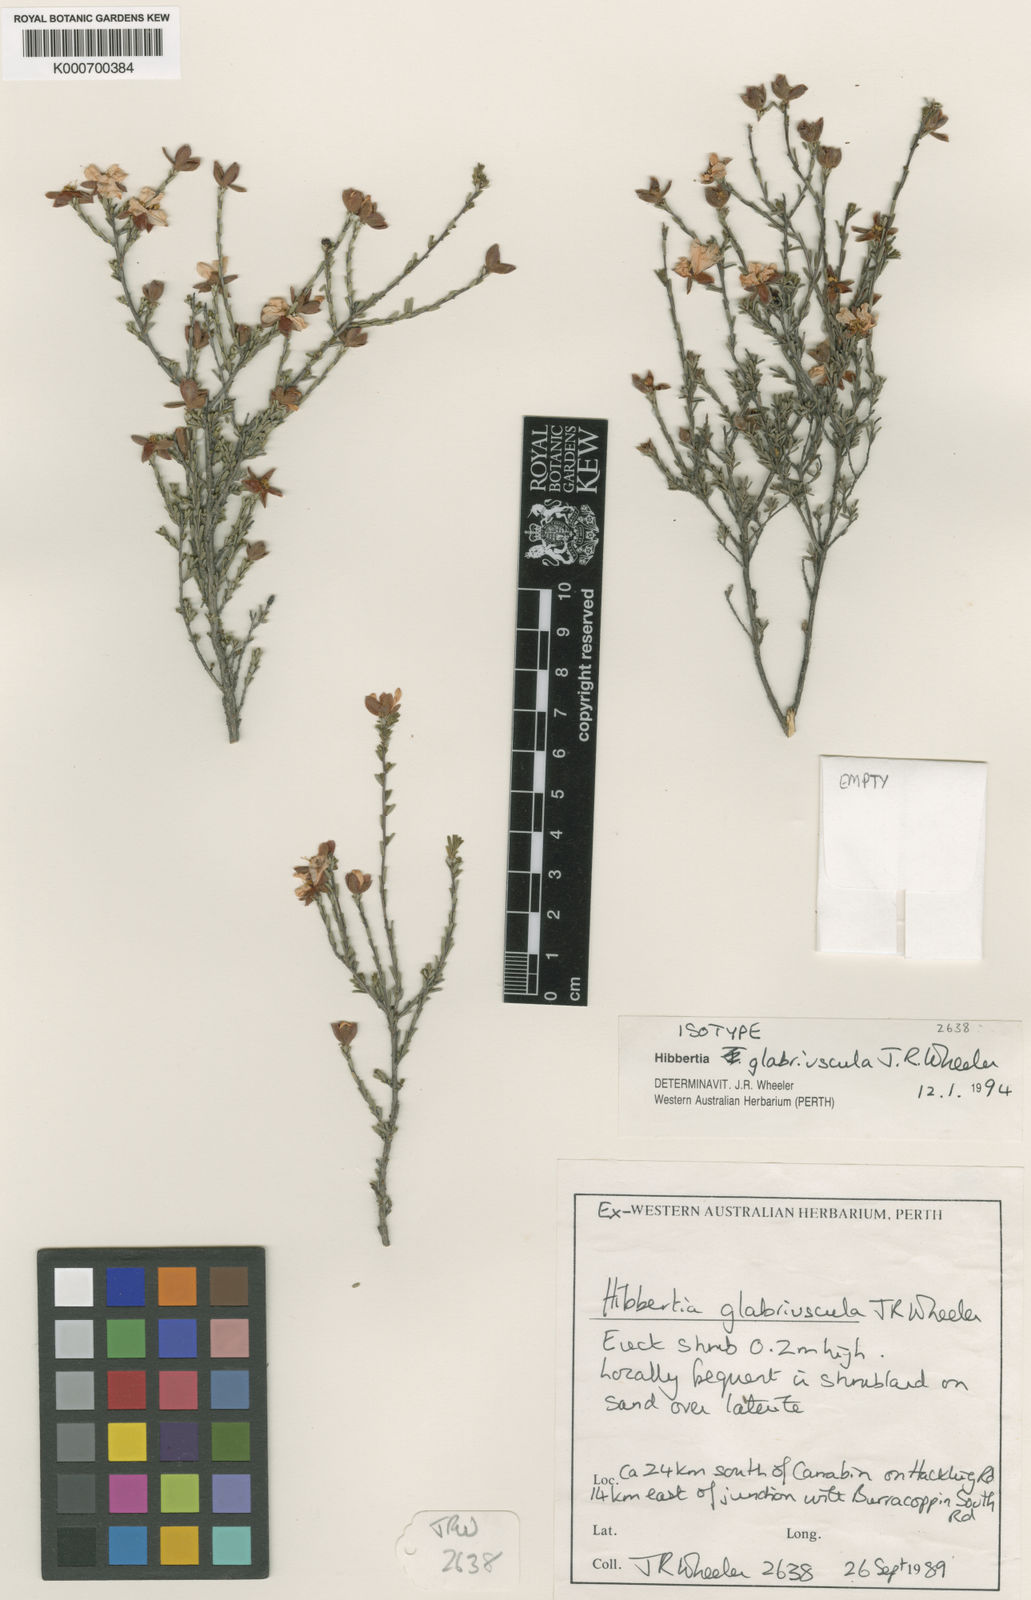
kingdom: Plantae
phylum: Tracheophyta
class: Magnoliopsida
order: Dilleniales
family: Dilleniaceae
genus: Hibbertia
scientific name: Hibbertia glabriuscula
